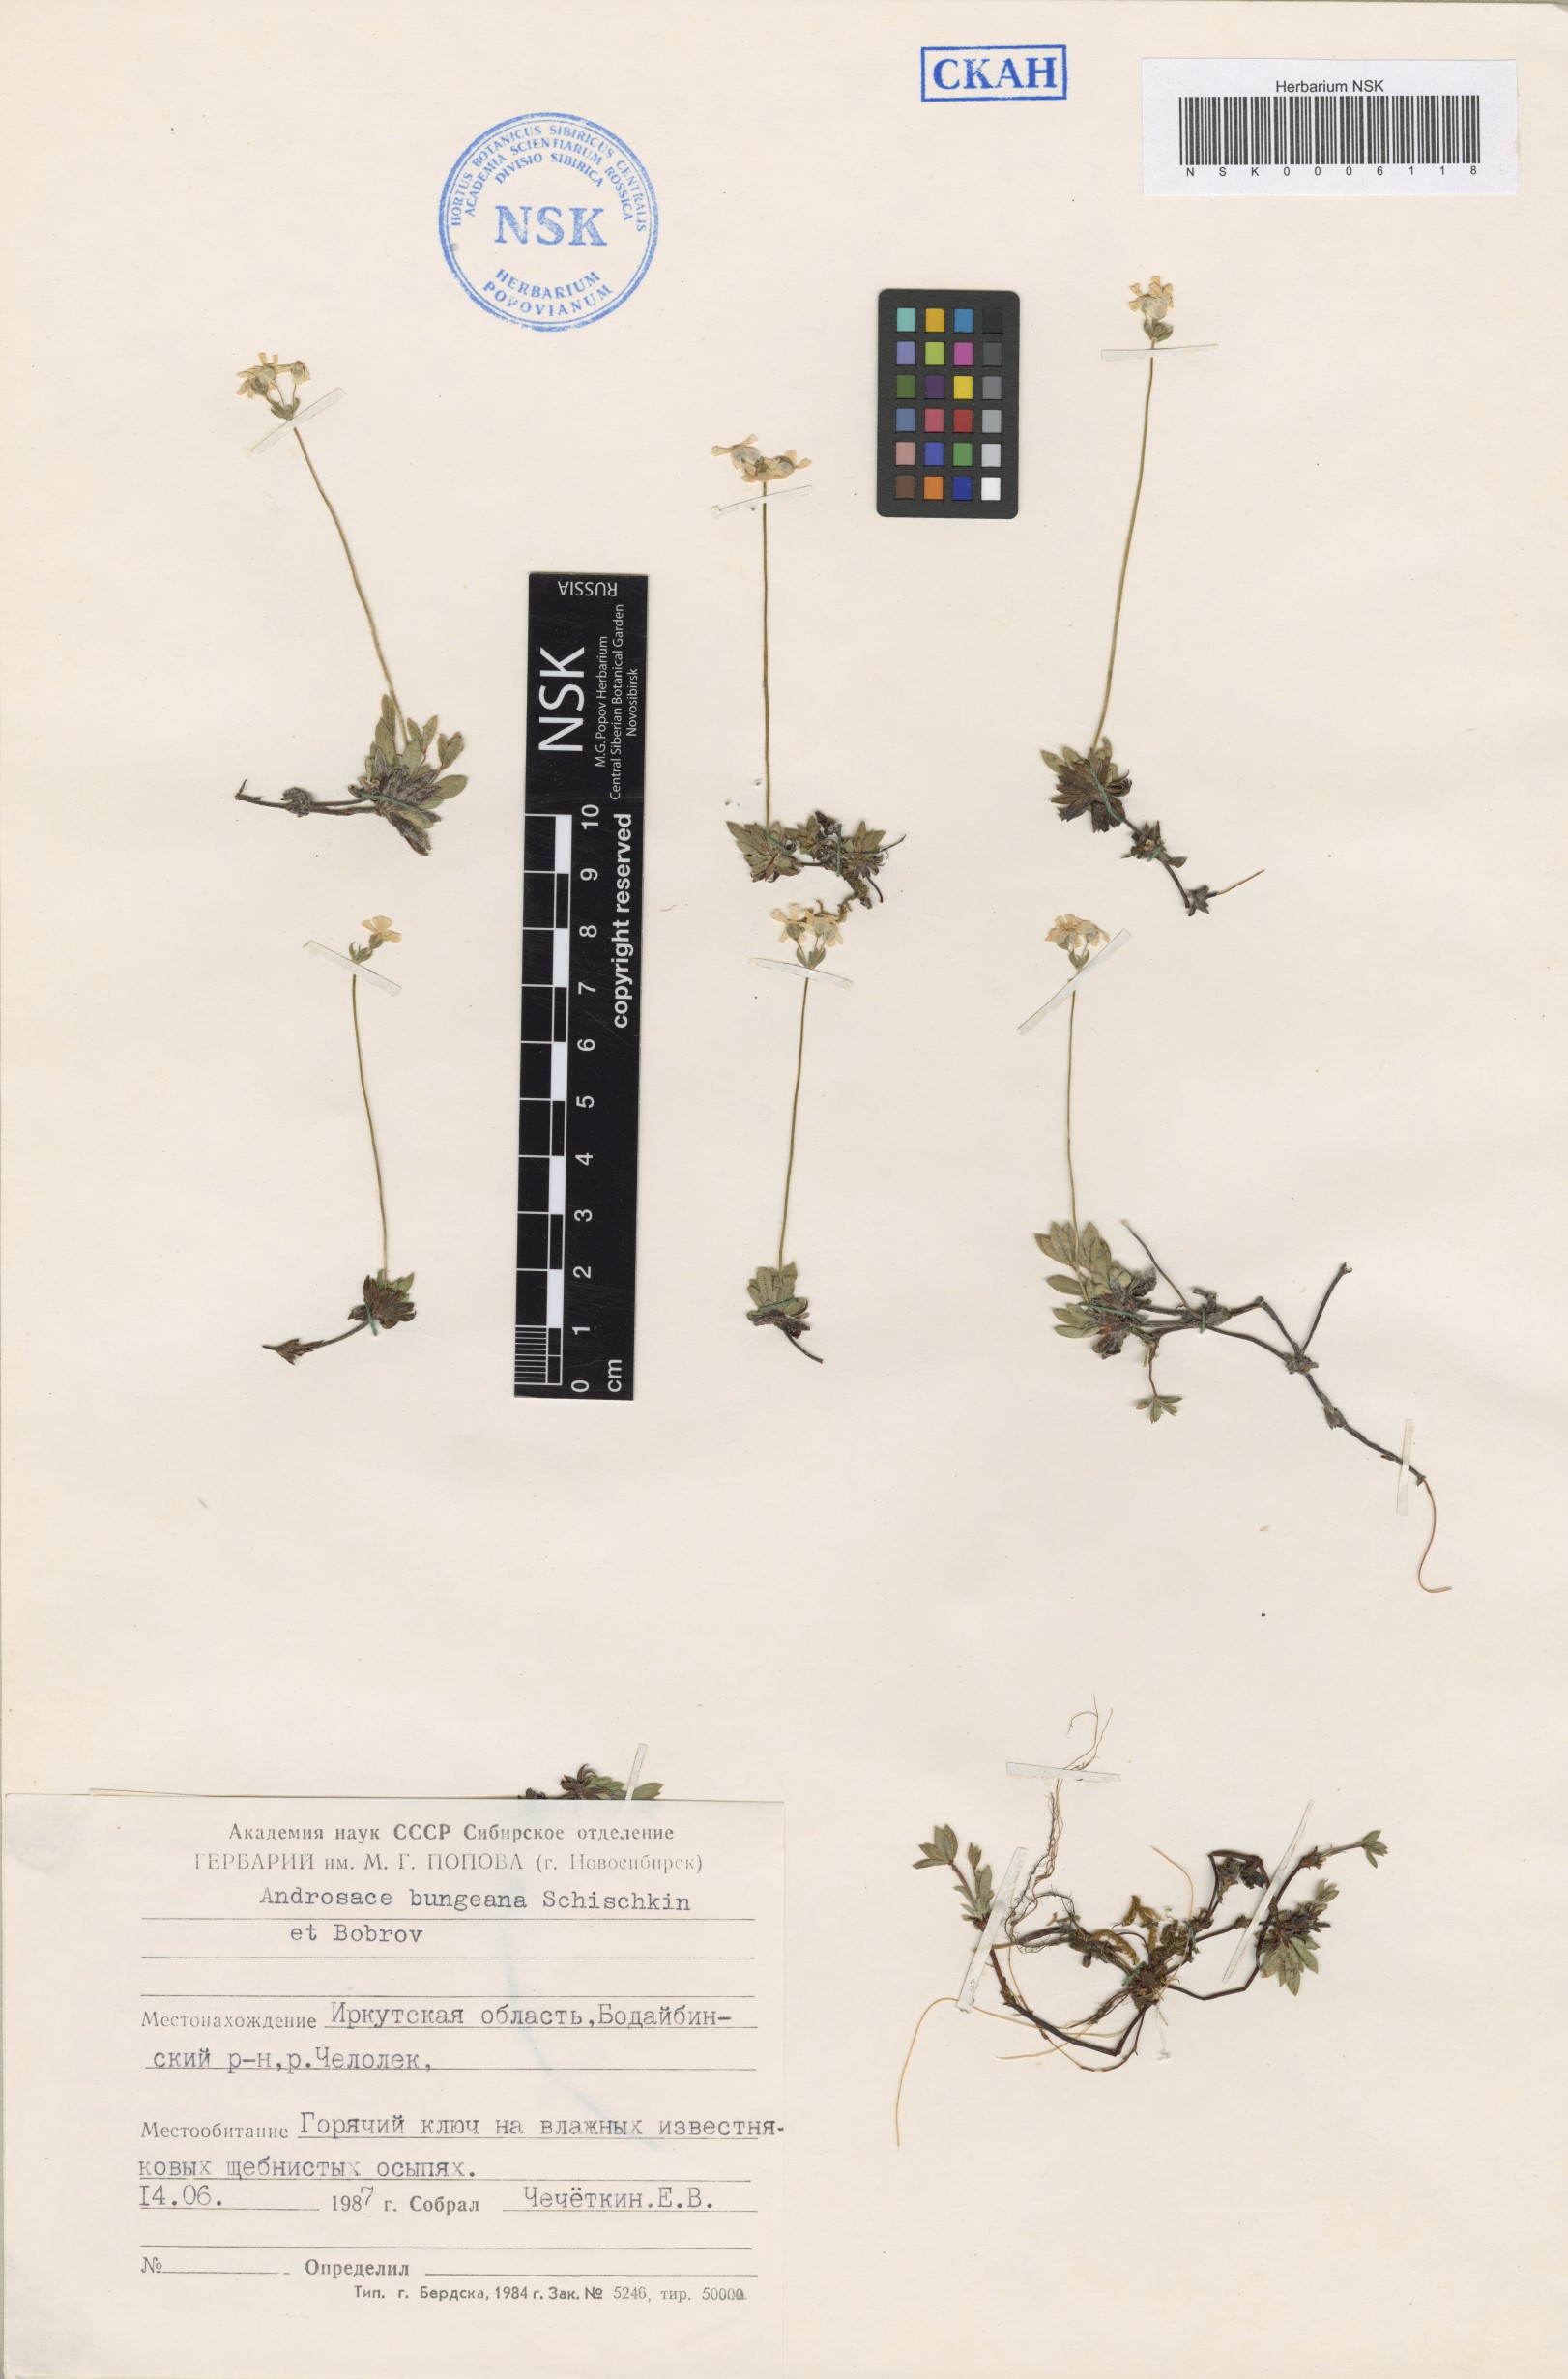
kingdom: Plantae
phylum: Tracheophyta
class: Magnoliopsida
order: Ericales
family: Primulaceae
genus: Androsace
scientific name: Androsace bungeana
